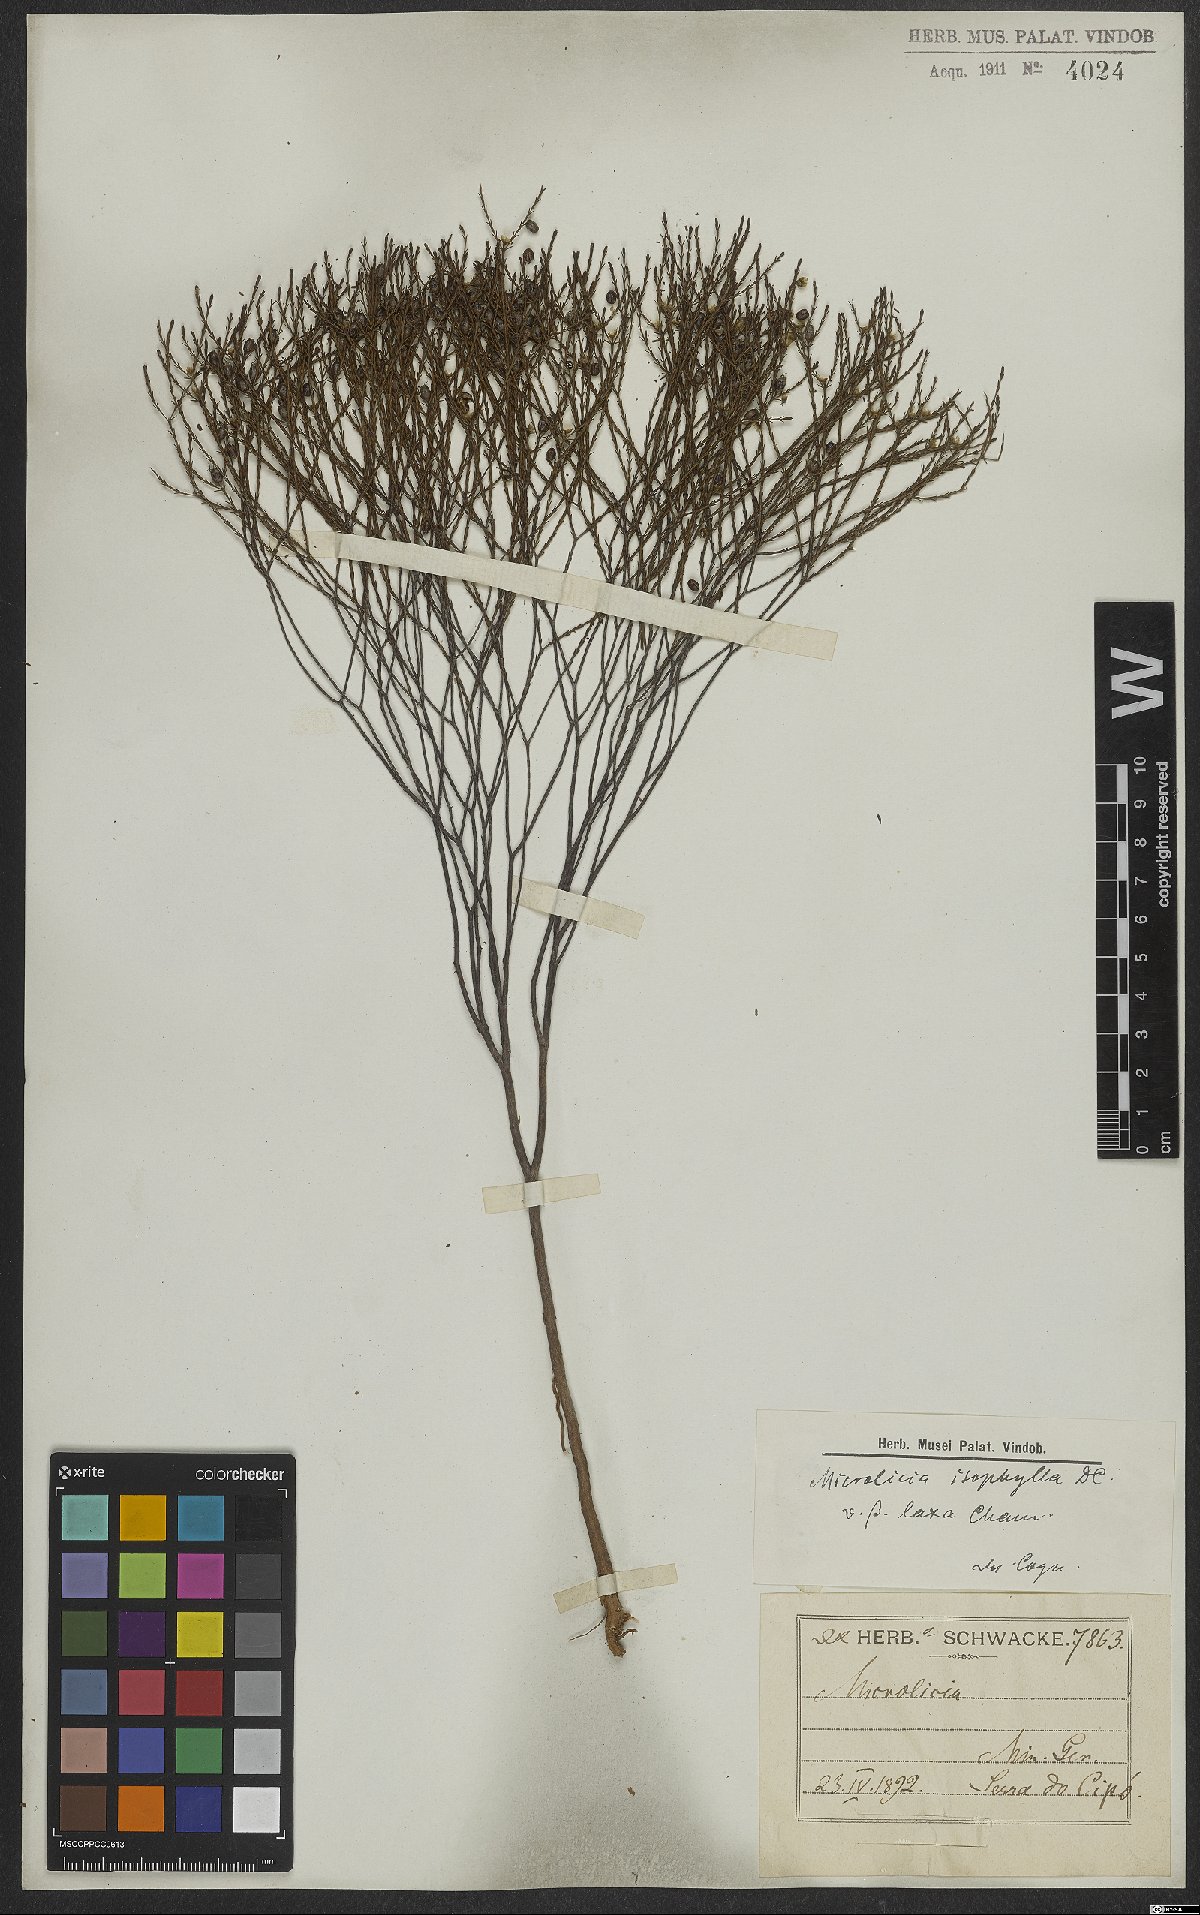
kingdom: Plantae
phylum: Tracheophyta
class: Magnoliopsida
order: Myrtales
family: Melastomataceae
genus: Microlicia
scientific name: Microlicia isophylla
